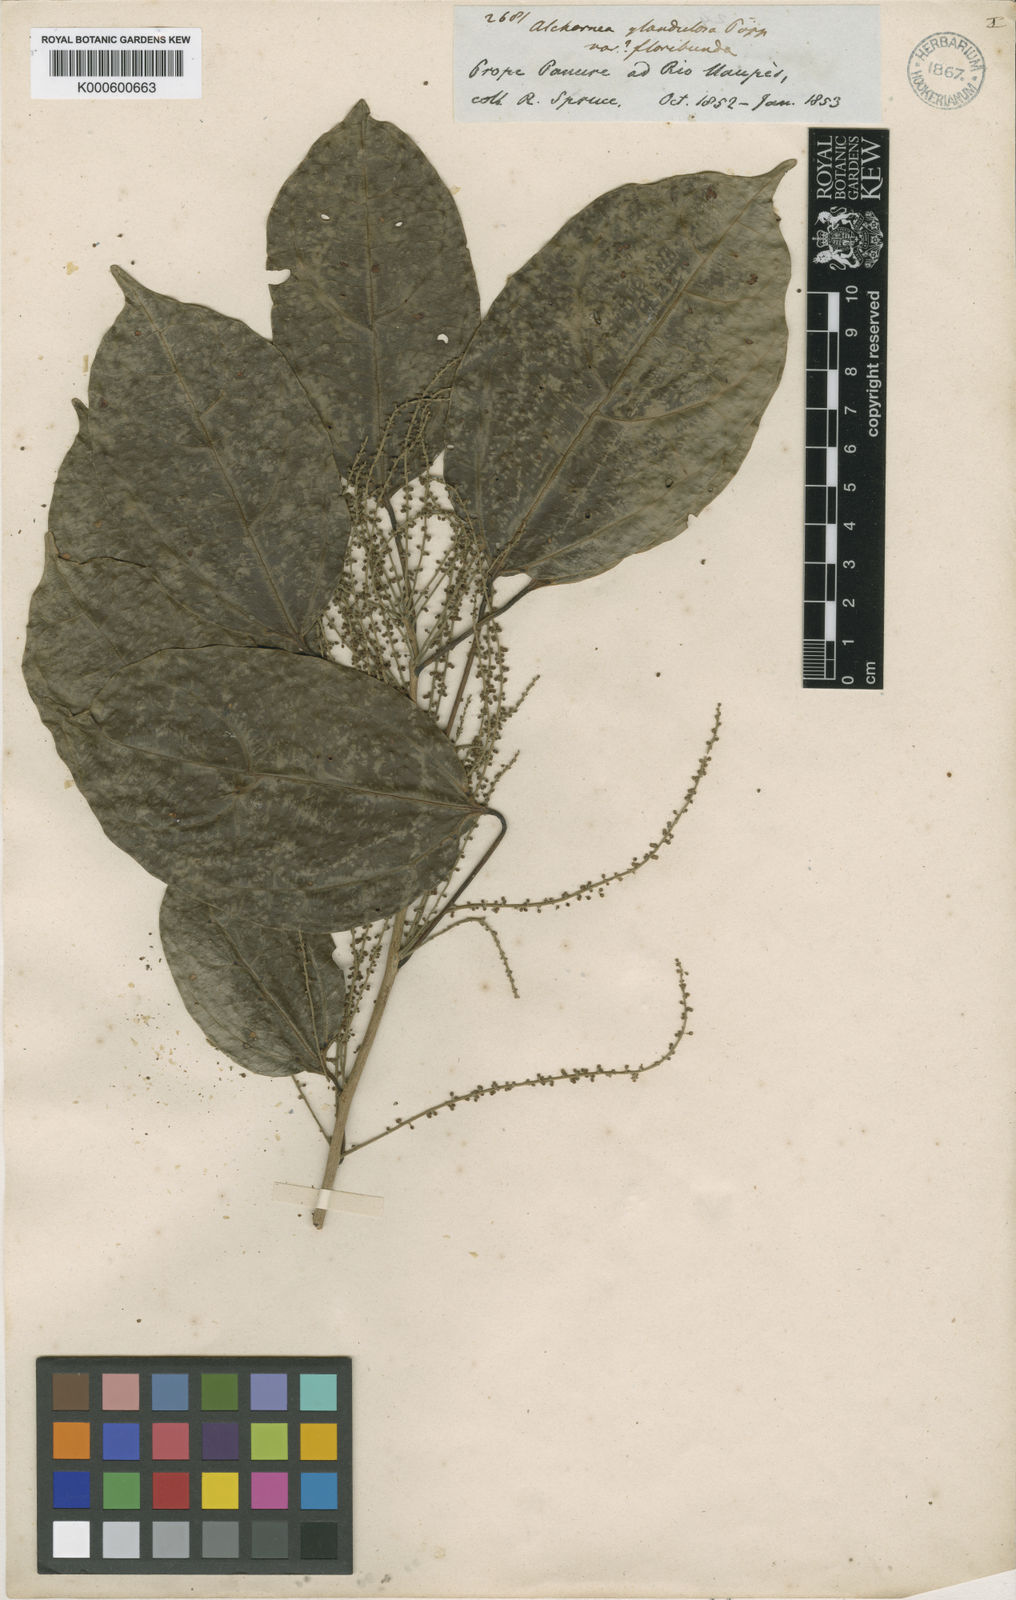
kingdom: Plantae
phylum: Tracheophyta
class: Magnoliopsida
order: Malpighiales
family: Euphorbiaceae
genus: Alchorneopsis
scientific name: Alchorneopsis
